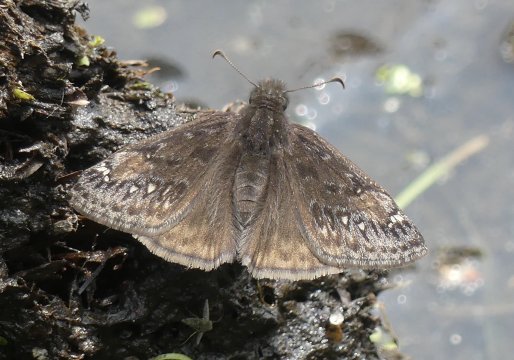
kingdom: Animalia
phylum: Arthropoda
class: Insecta
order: Lepidoptera
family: Hesperiidae
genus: Gesta
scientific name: Gesta
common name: Juvenal's Duskywing
